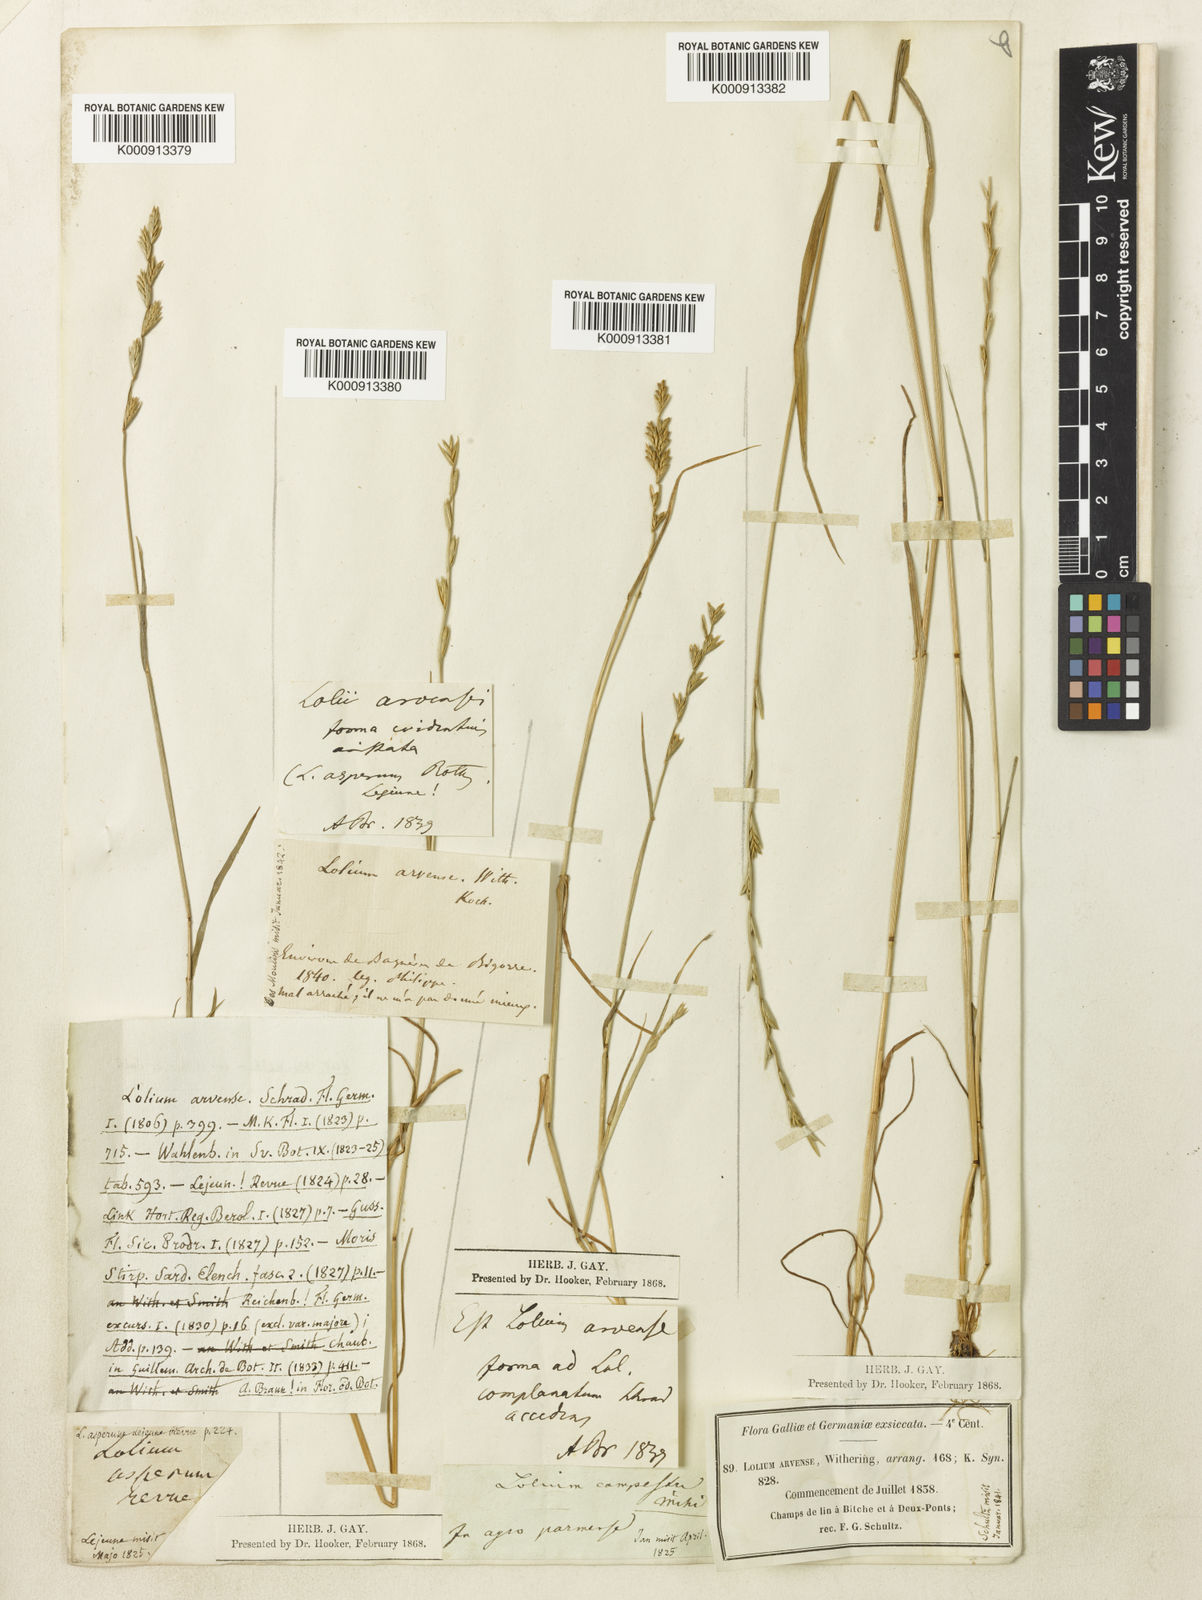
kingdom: Plantae
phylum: Tracheophyta
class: Liliopsida
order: Poales
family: Poaceae
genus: Lolium
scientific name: Lolium remotum
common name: Flaxfield rye-grass
